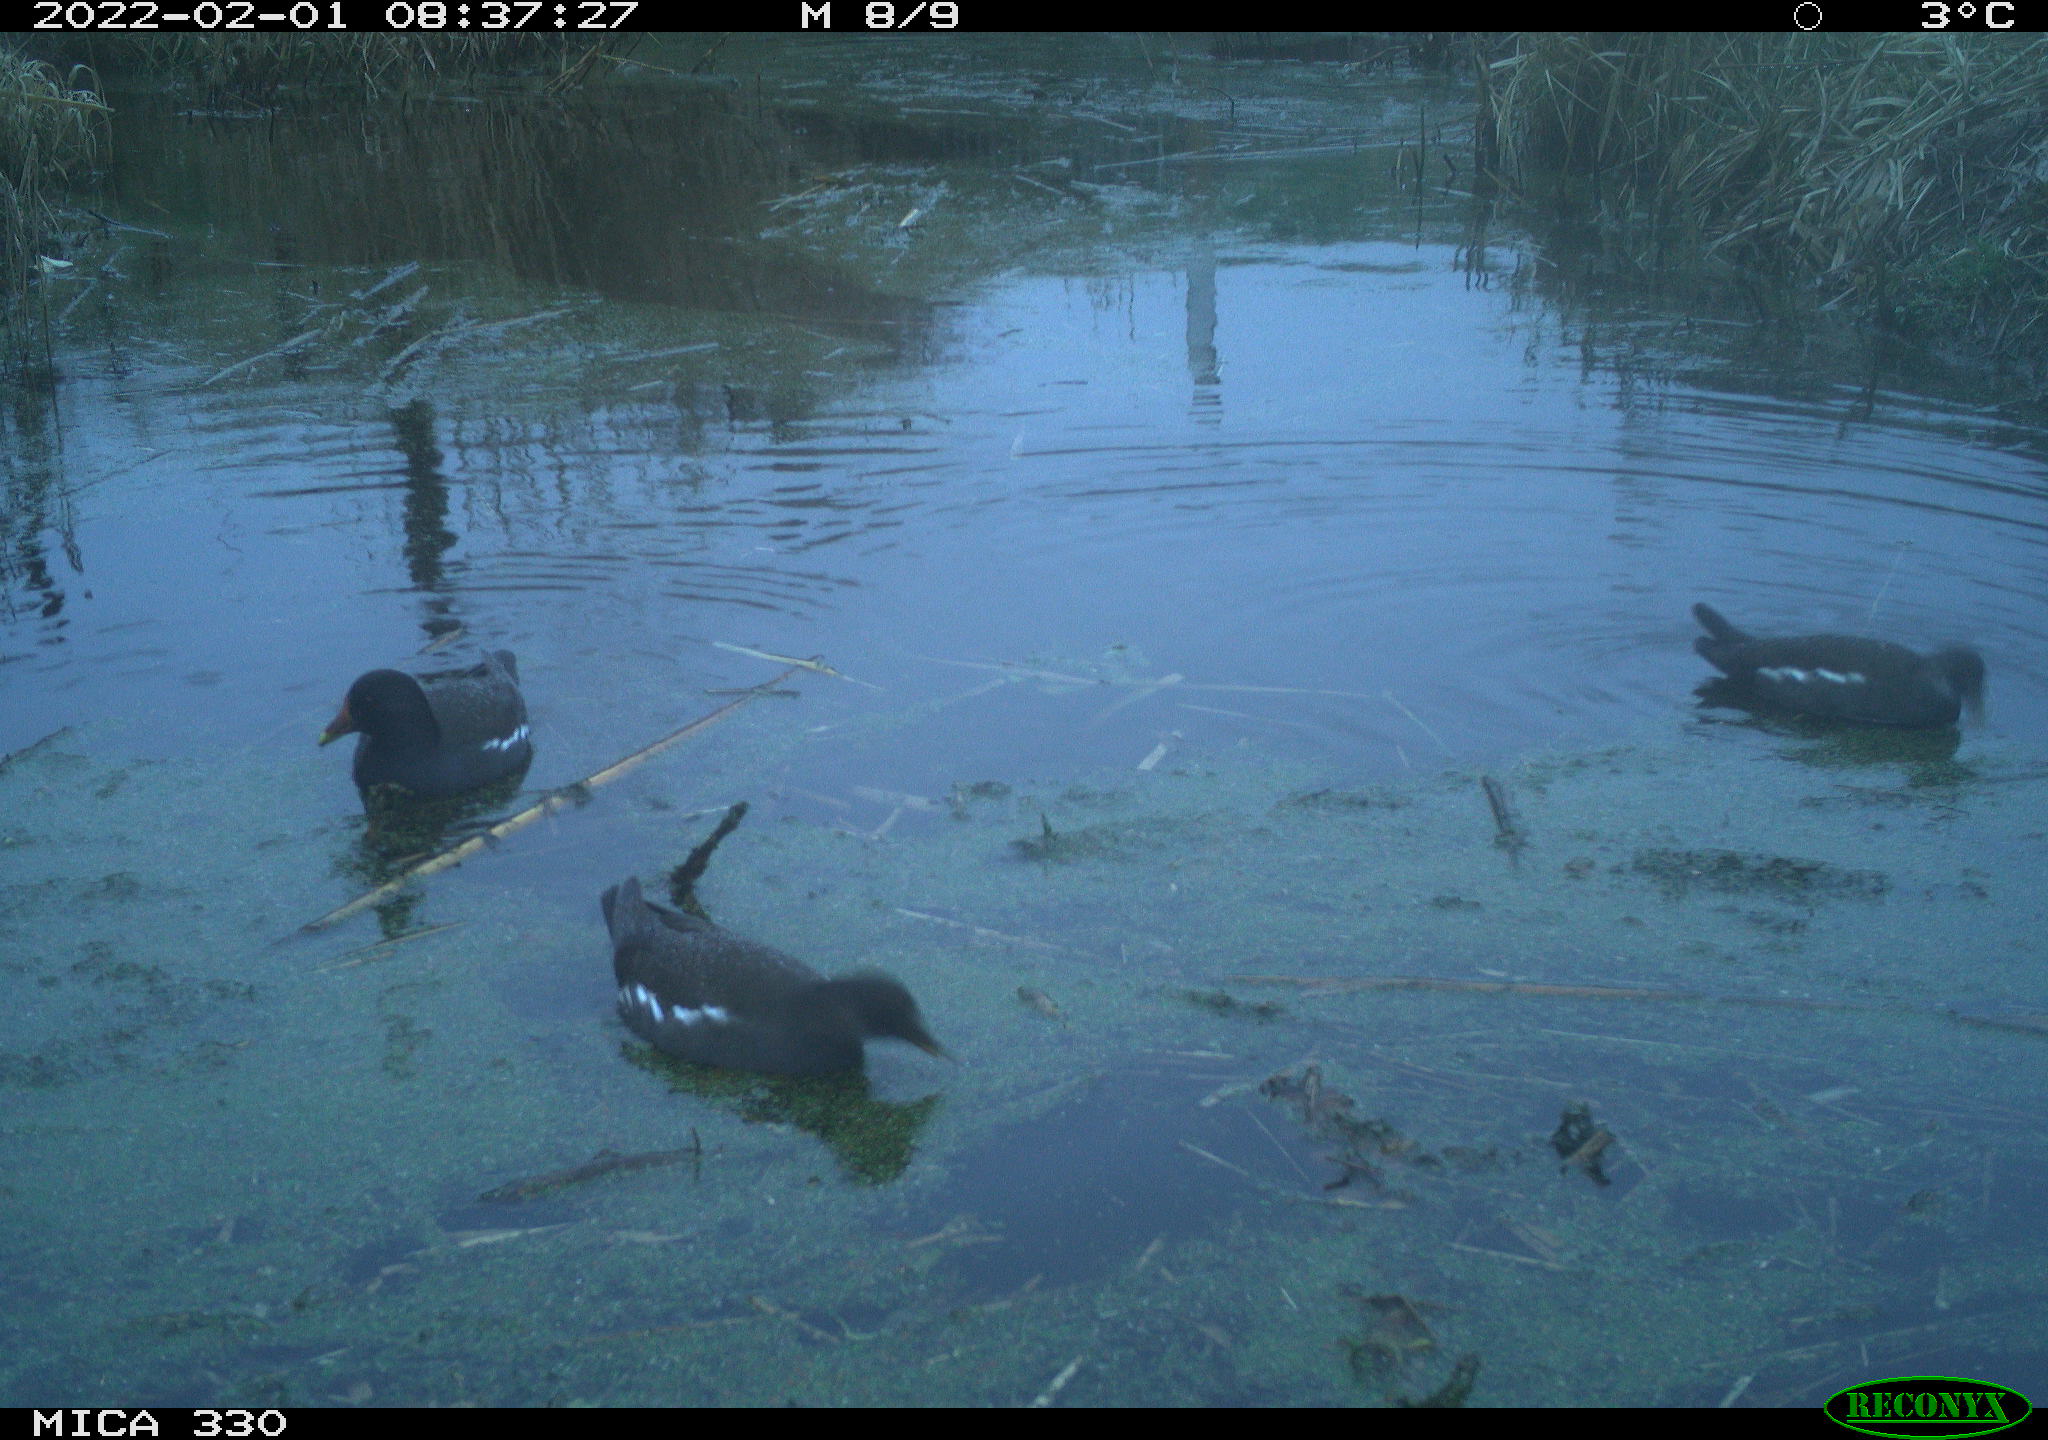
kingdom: Animalia
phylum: Chordata
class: Aves
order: Gruiformes
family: Rallidae
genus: Gallinula
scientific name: Gallinula chloropus
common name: Common moorhen
